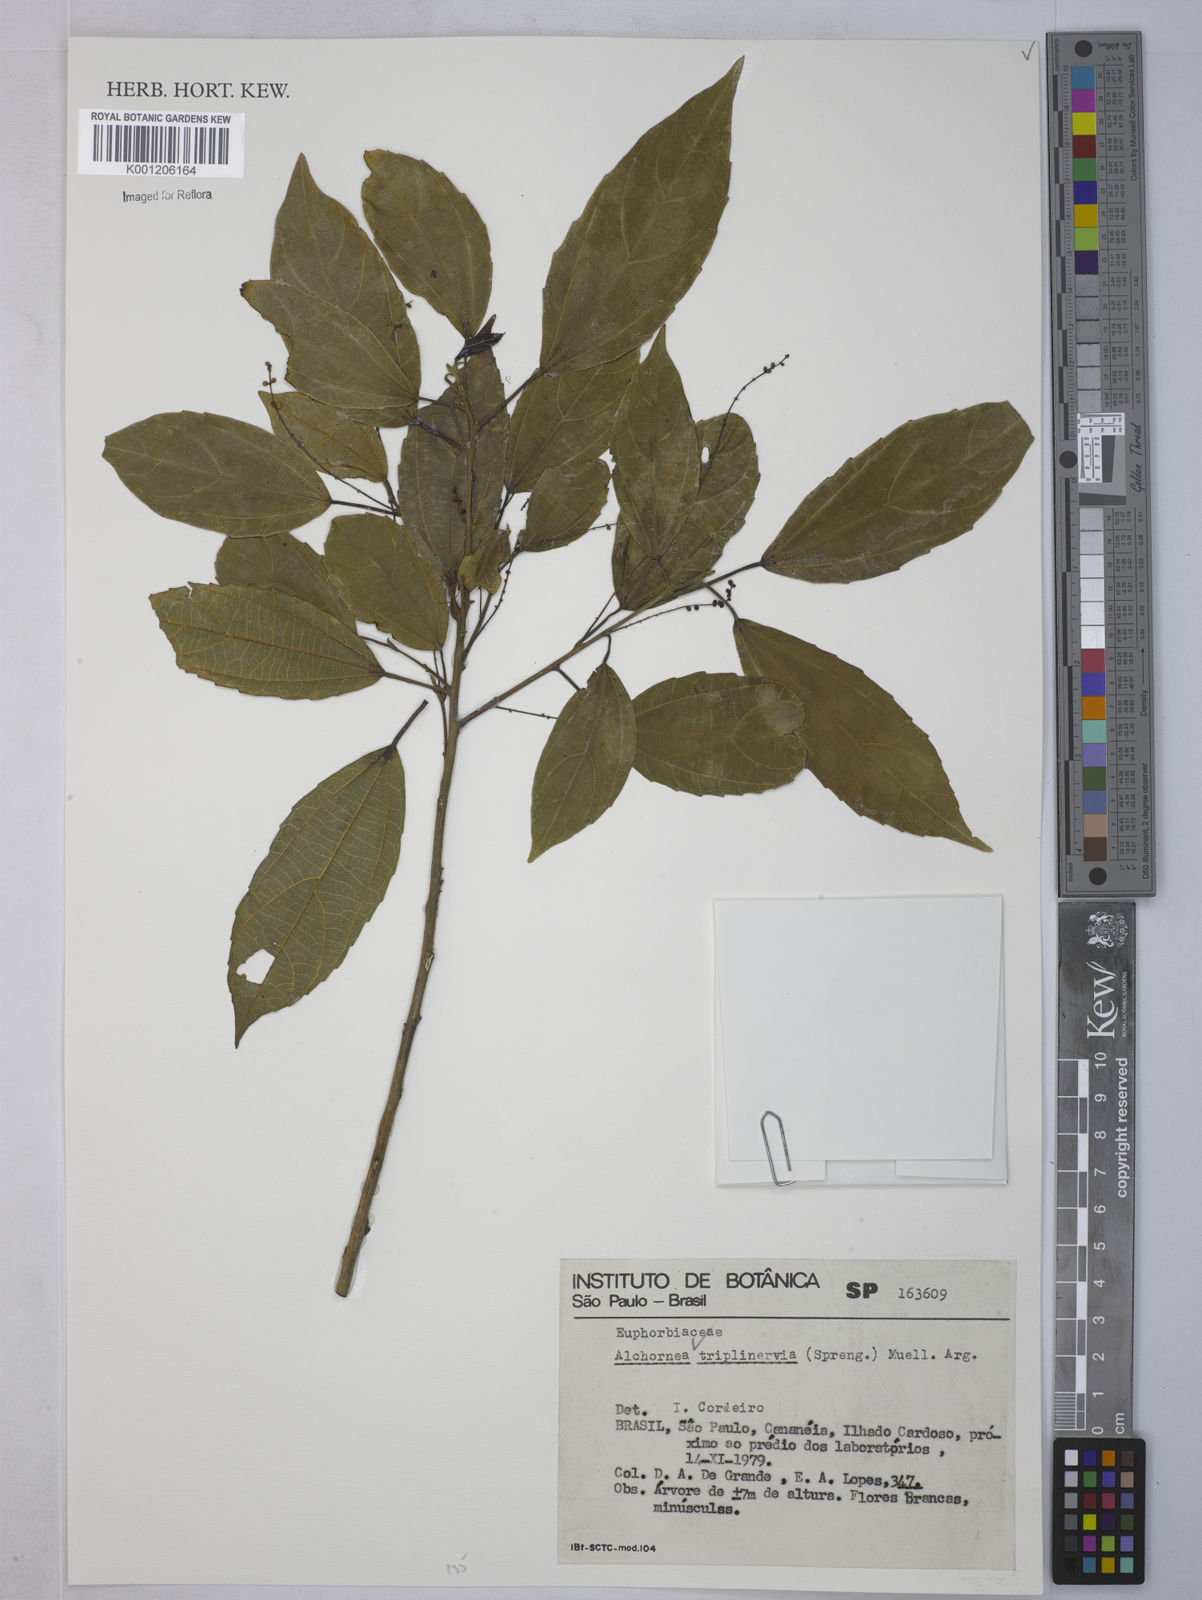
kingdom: Plantae
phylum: Tracheophyta
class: Magnoliopsida
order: Malpighiales
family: Euphorbiaceae
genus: Alchornea
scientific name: Alchornea
